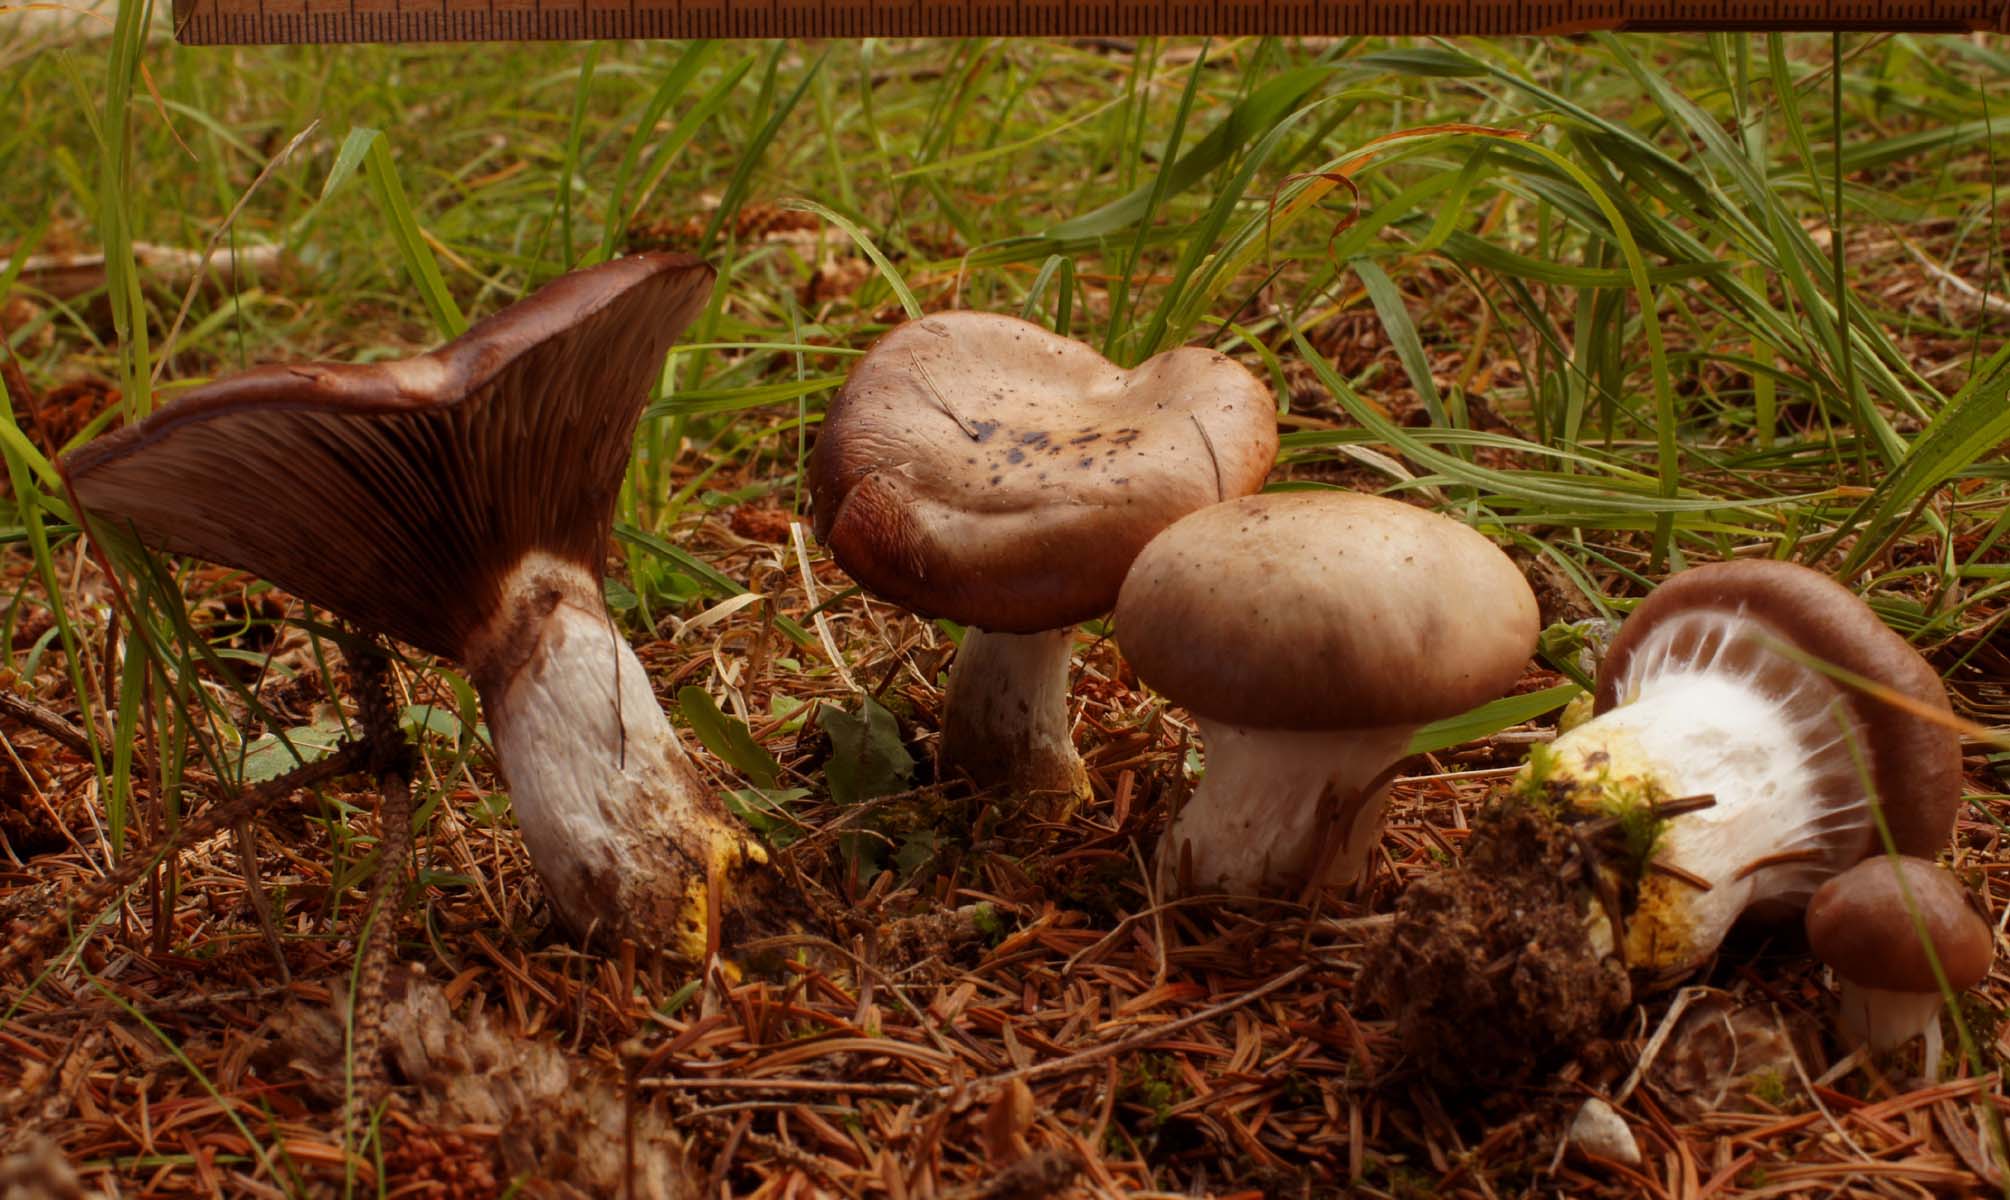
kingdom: Fungi
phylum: Basidiomycota
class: Agaricomycetes
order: Boletales
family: Gomphidiaceae
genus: Gomphidius
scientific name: Gomphidius glutinosus
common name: grå slimslør
